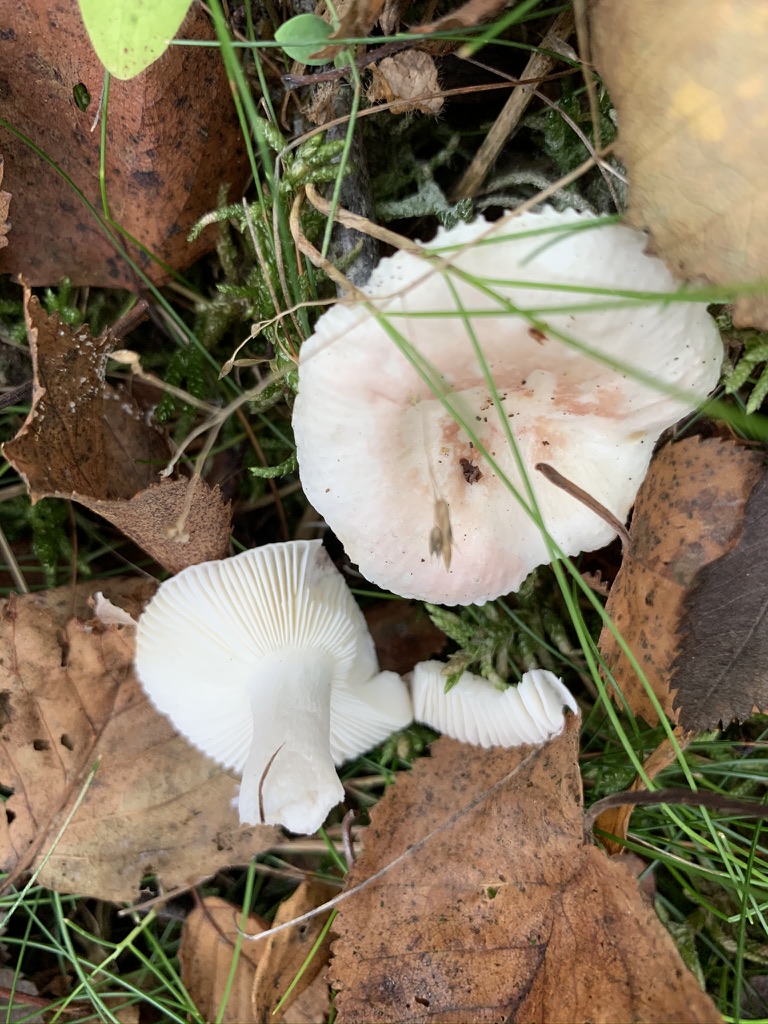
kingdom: Fungi
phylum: Basidiomycota
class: Agaricomycetes
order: Russulales
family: Russulaceae
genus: Russula
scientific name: Russula betularum
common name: bleg gift-skørhat
